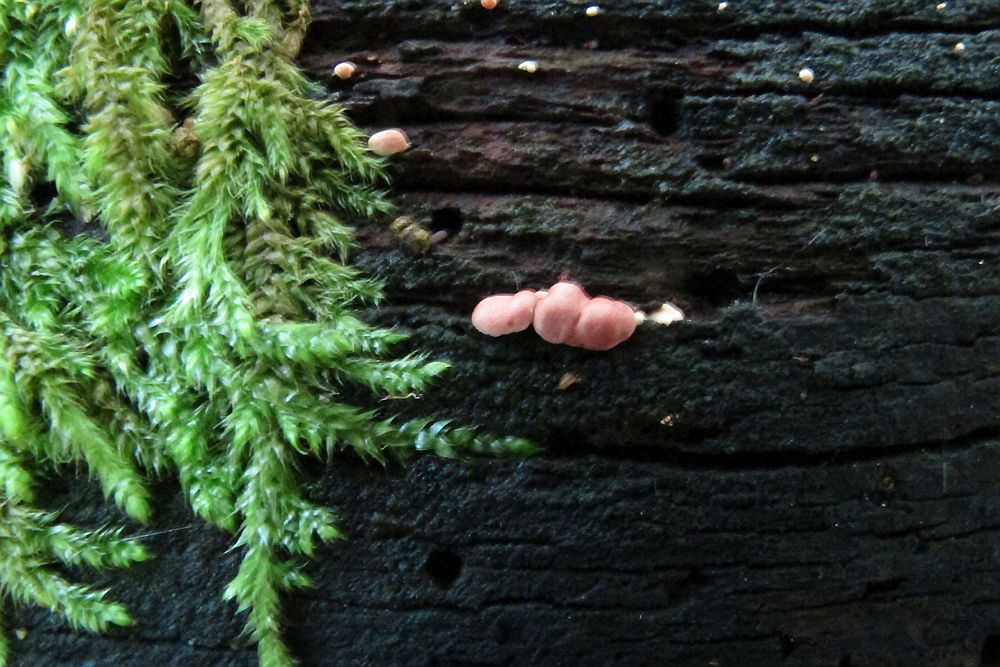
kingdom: Fungi
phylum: Ascomycota
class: Sordariomycetes
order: Hypocreales
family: Hypocreaceae
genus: Trichoderma
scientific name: Trichoderma europaeum
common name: rosabrun kødkerne
